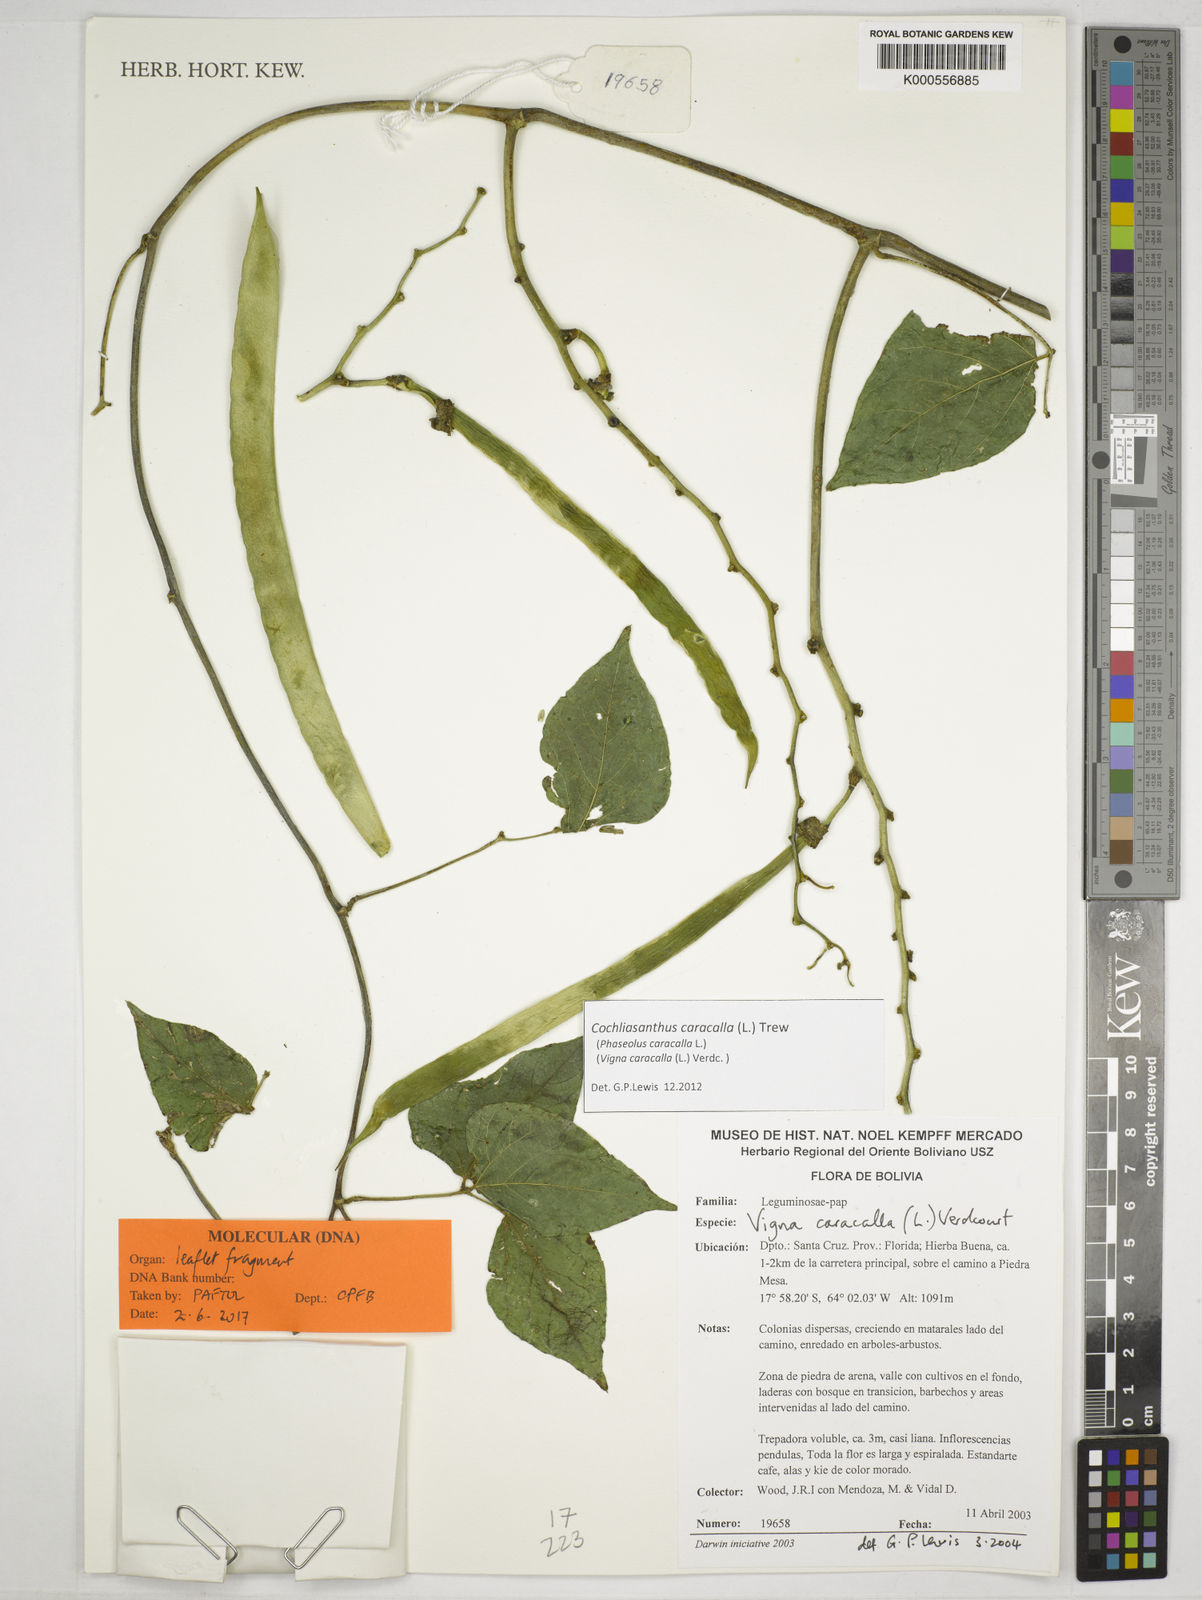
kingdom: Plantae
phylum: Tracheophyta
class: Magnoliopsida
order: Fabales
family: Fabaceae
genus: Cochliasanthus
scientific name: Cochliasanthus caracalla
